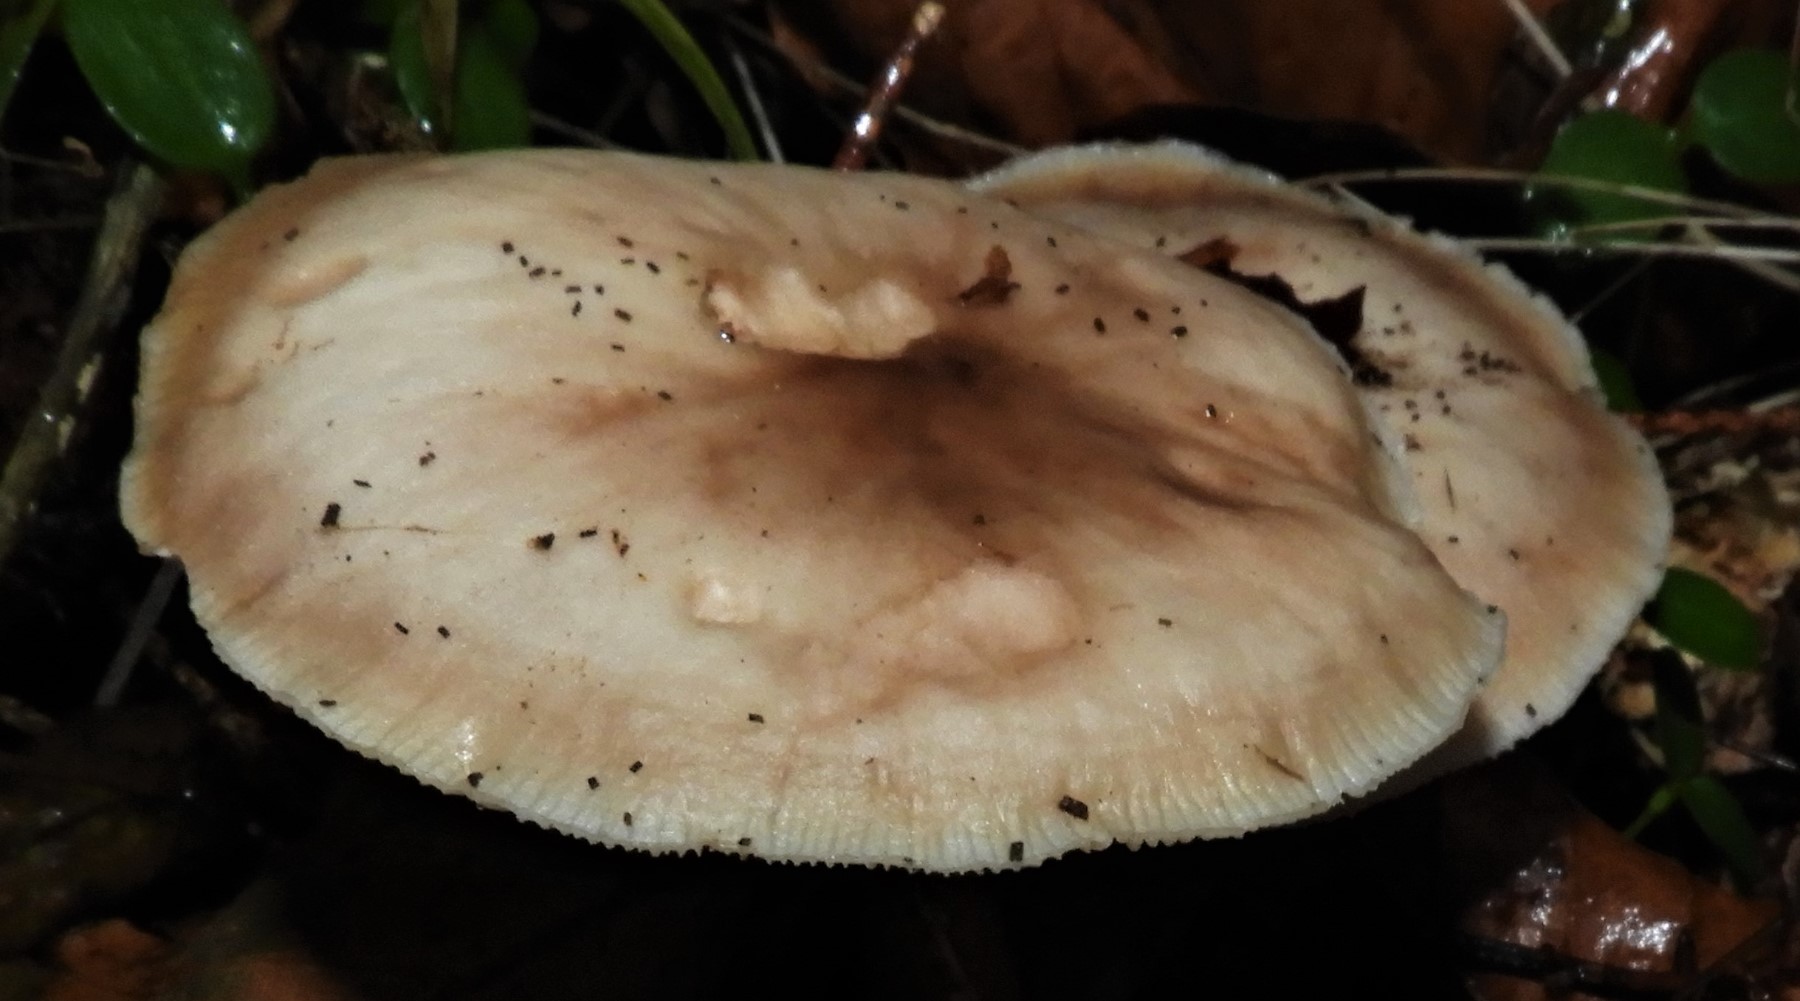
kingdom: Fungi
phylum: Basidiomycota
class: Agaricomycetes
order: Agaricales
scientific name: Agaricales
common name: champignonordenen
